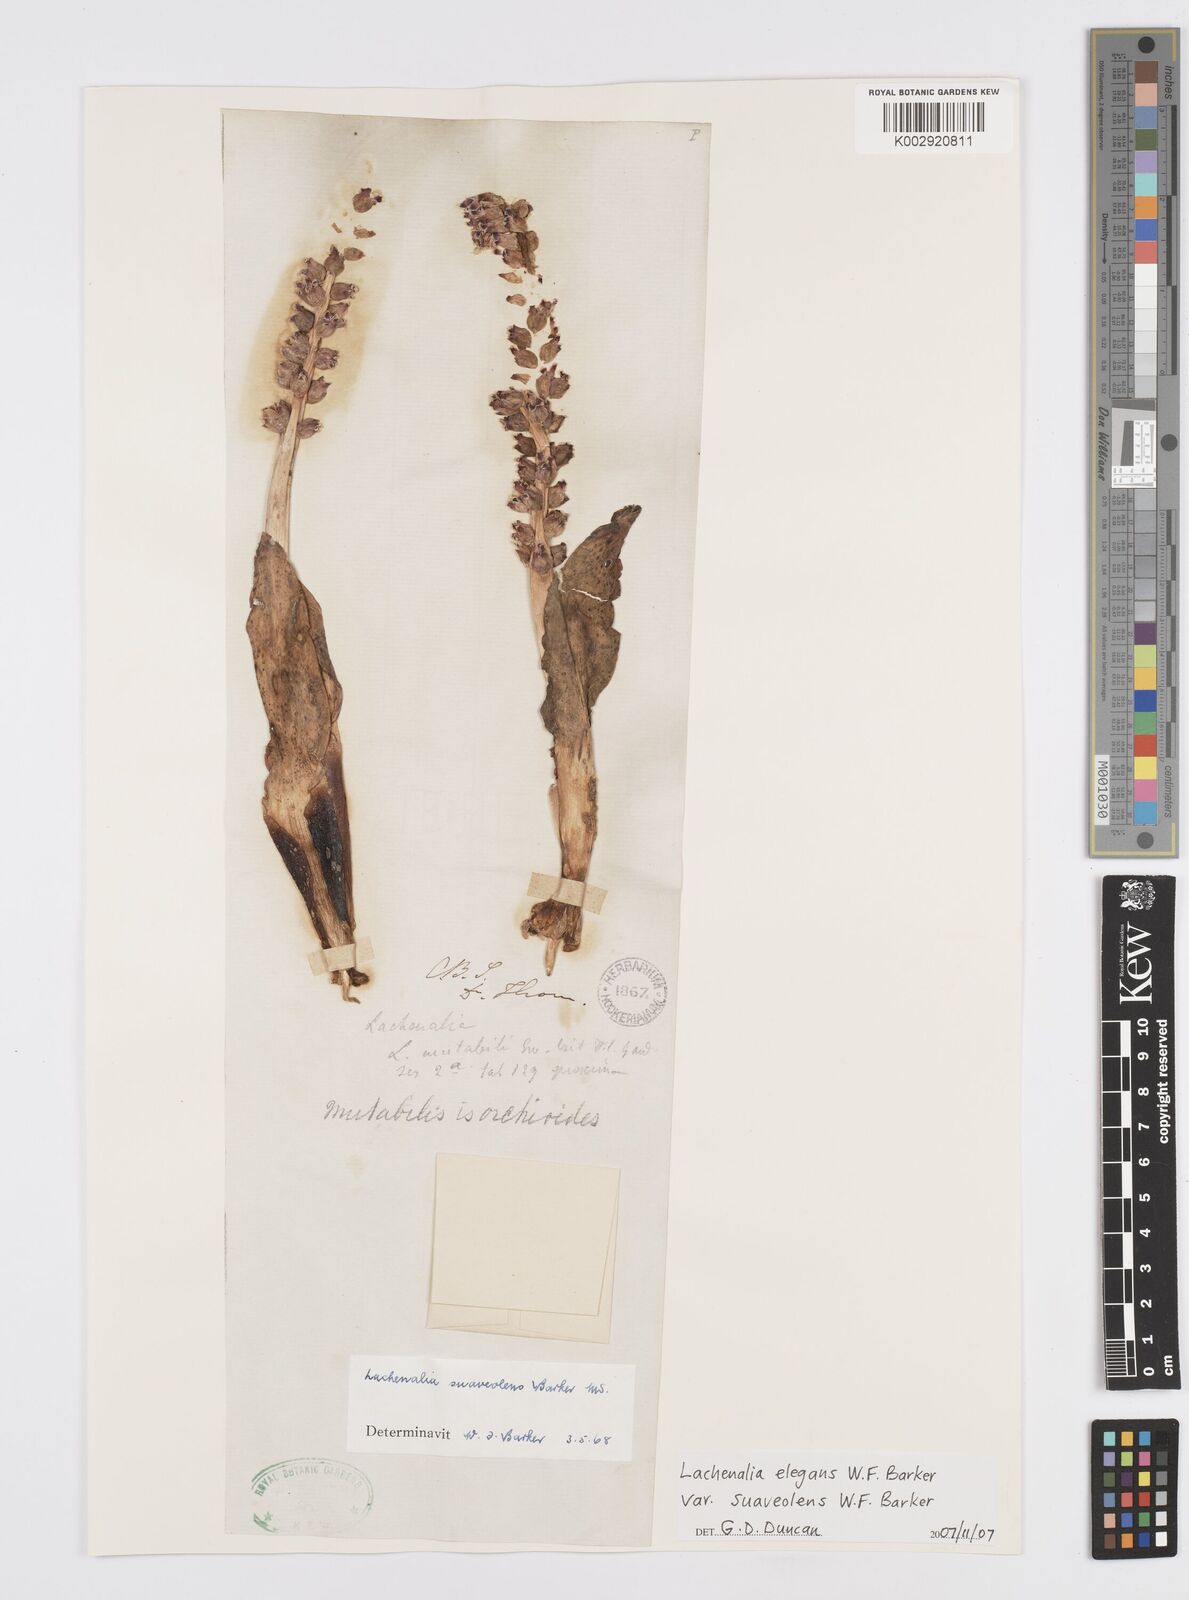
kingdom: Plantae
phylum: Tracheophyta
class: Liliopsida
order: Asparagales
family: Asparagaceae
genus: Lachenalia
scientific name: Lachenalia suaveolens
